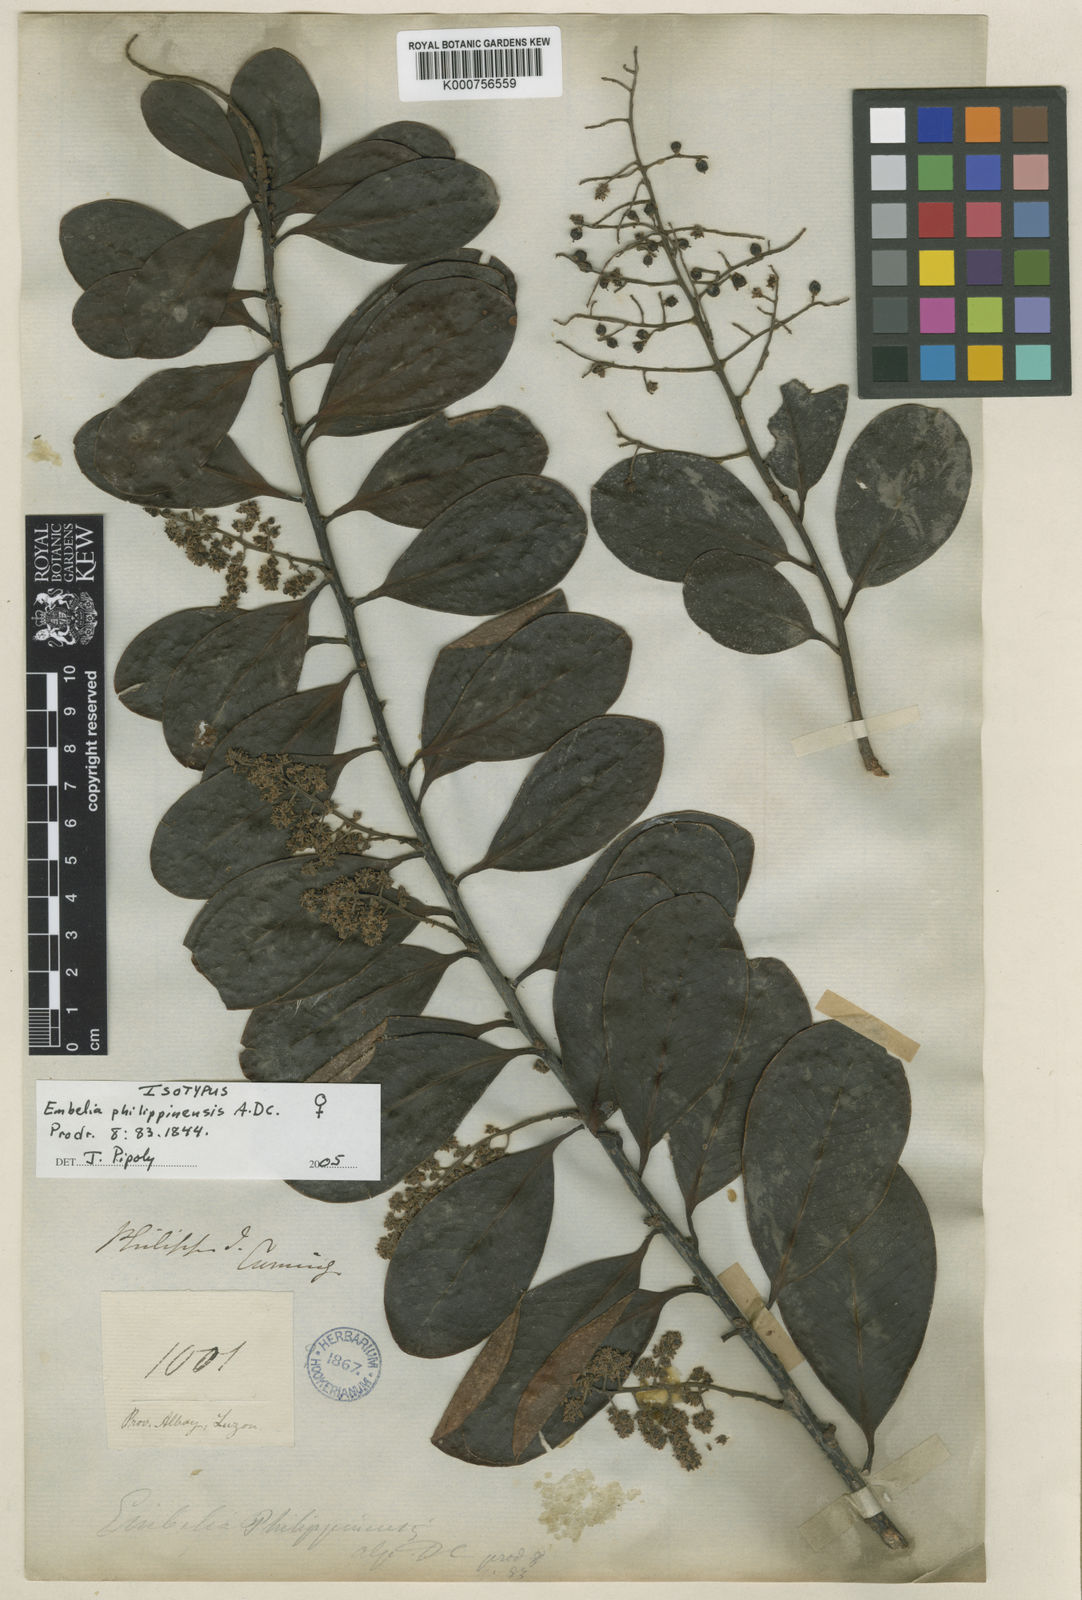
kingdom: Plantae
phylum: Tracheophyta
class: Magnoliopsida
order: Ericales
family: Primulaceae
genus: Embelia
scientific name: Embelia philippinensis
